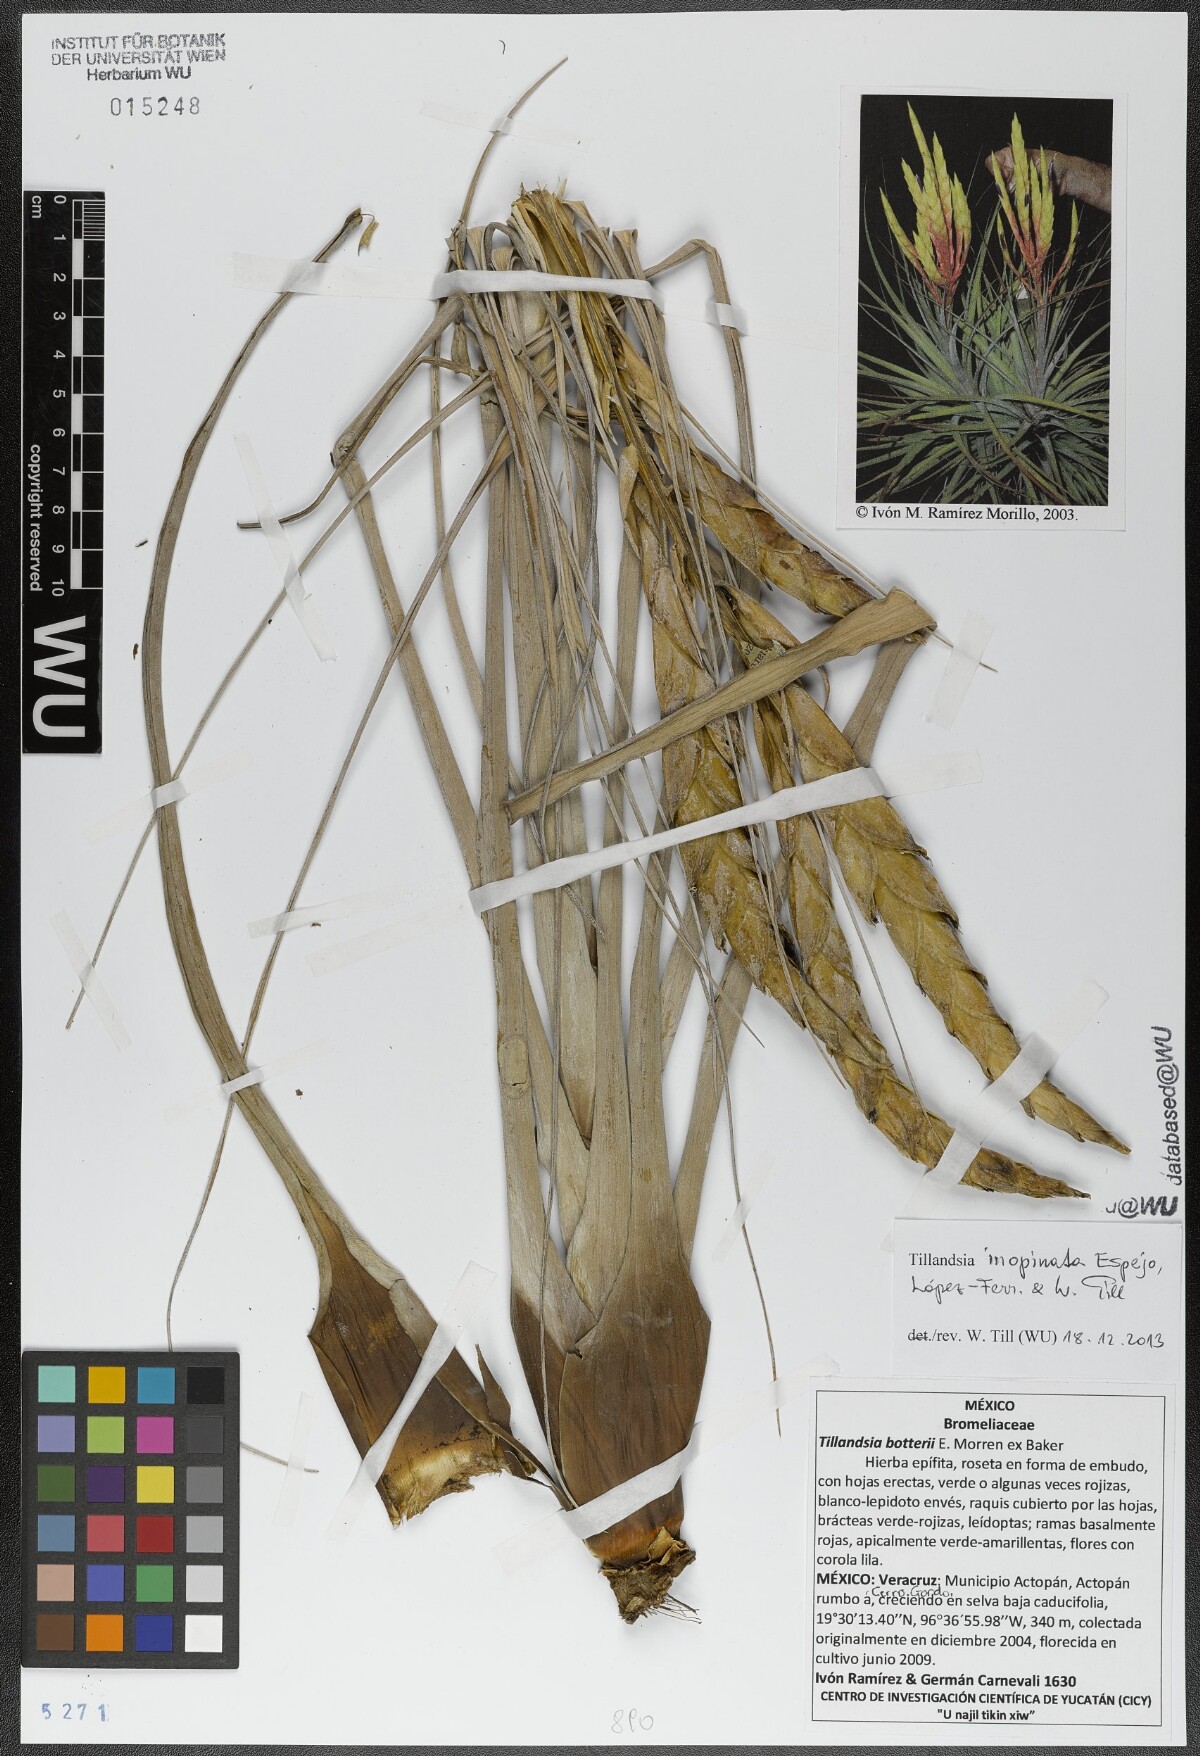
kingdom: Plantae
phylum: Tracheophyta
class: Liliopsida
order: Poales
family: Bromeliaceae
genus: Tillandsia
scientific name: Tillandsia inopinata
